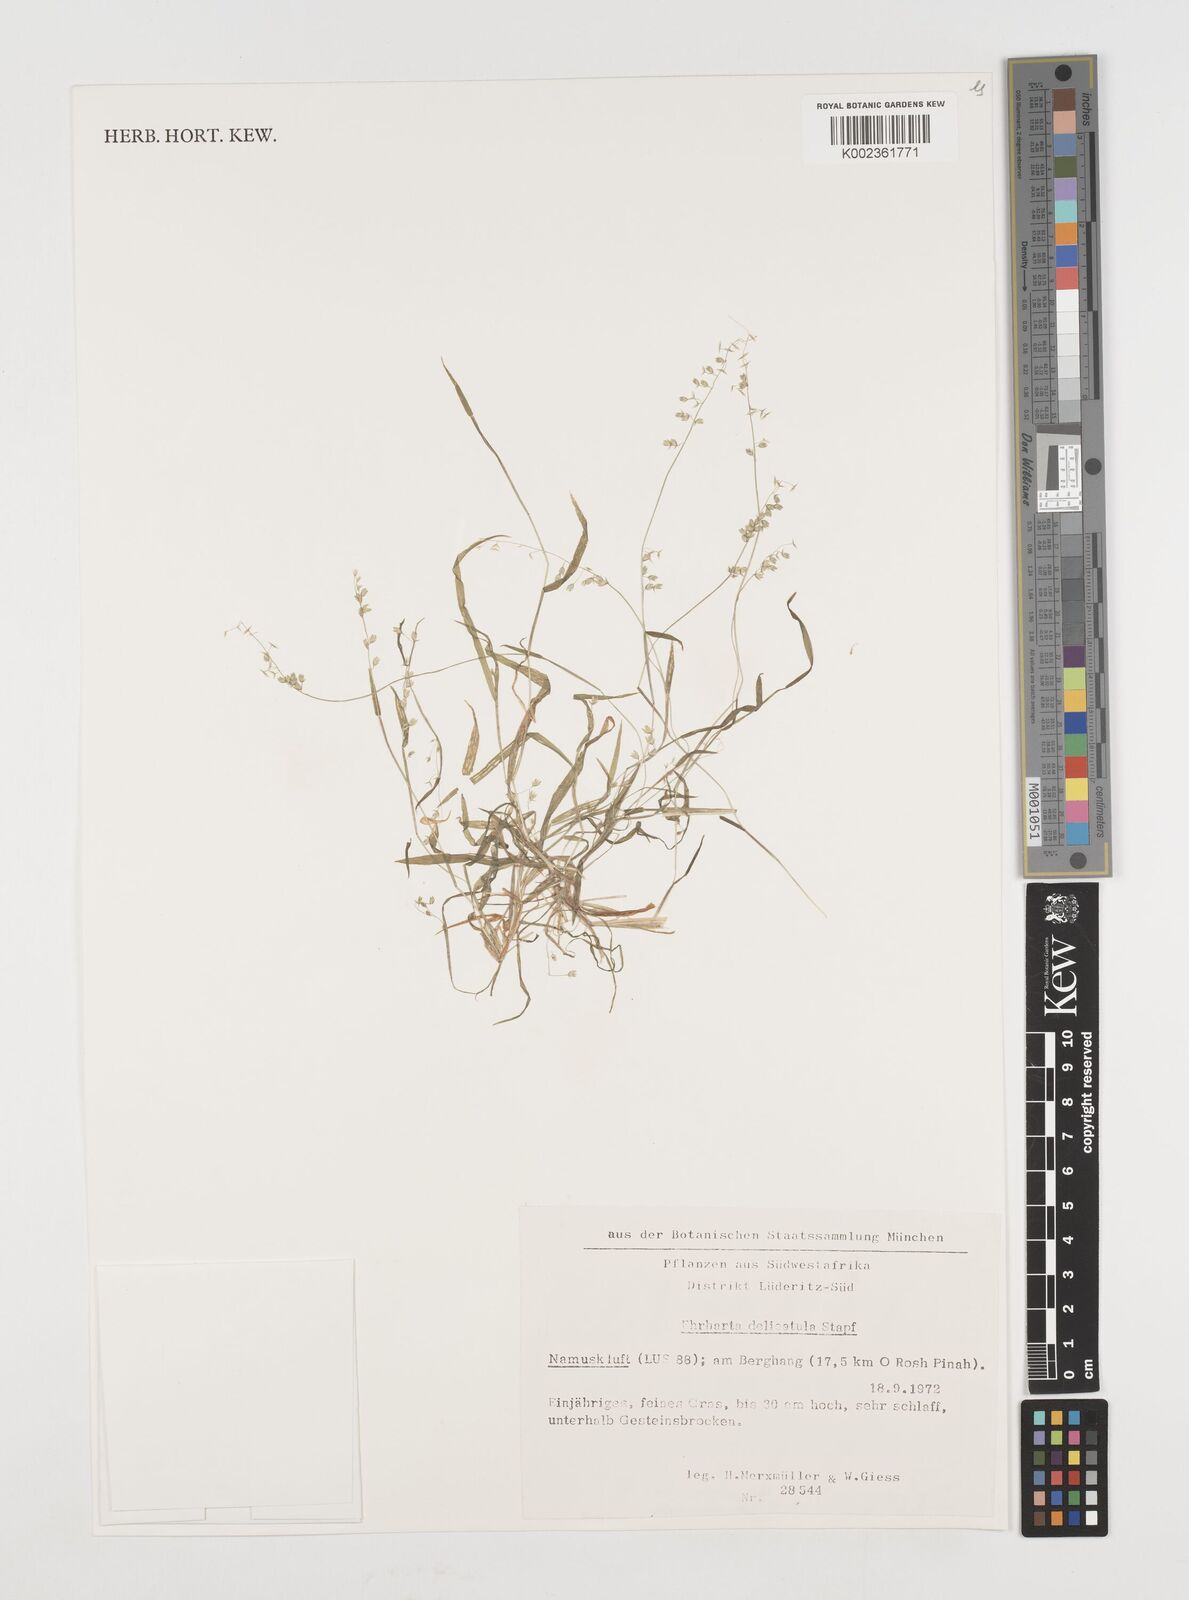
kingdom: Plantae
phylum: Tracheophyta
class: Liliopsida
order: Poales
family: Poaceae
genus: Ehrharta
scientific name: Ehrharta delicatula
